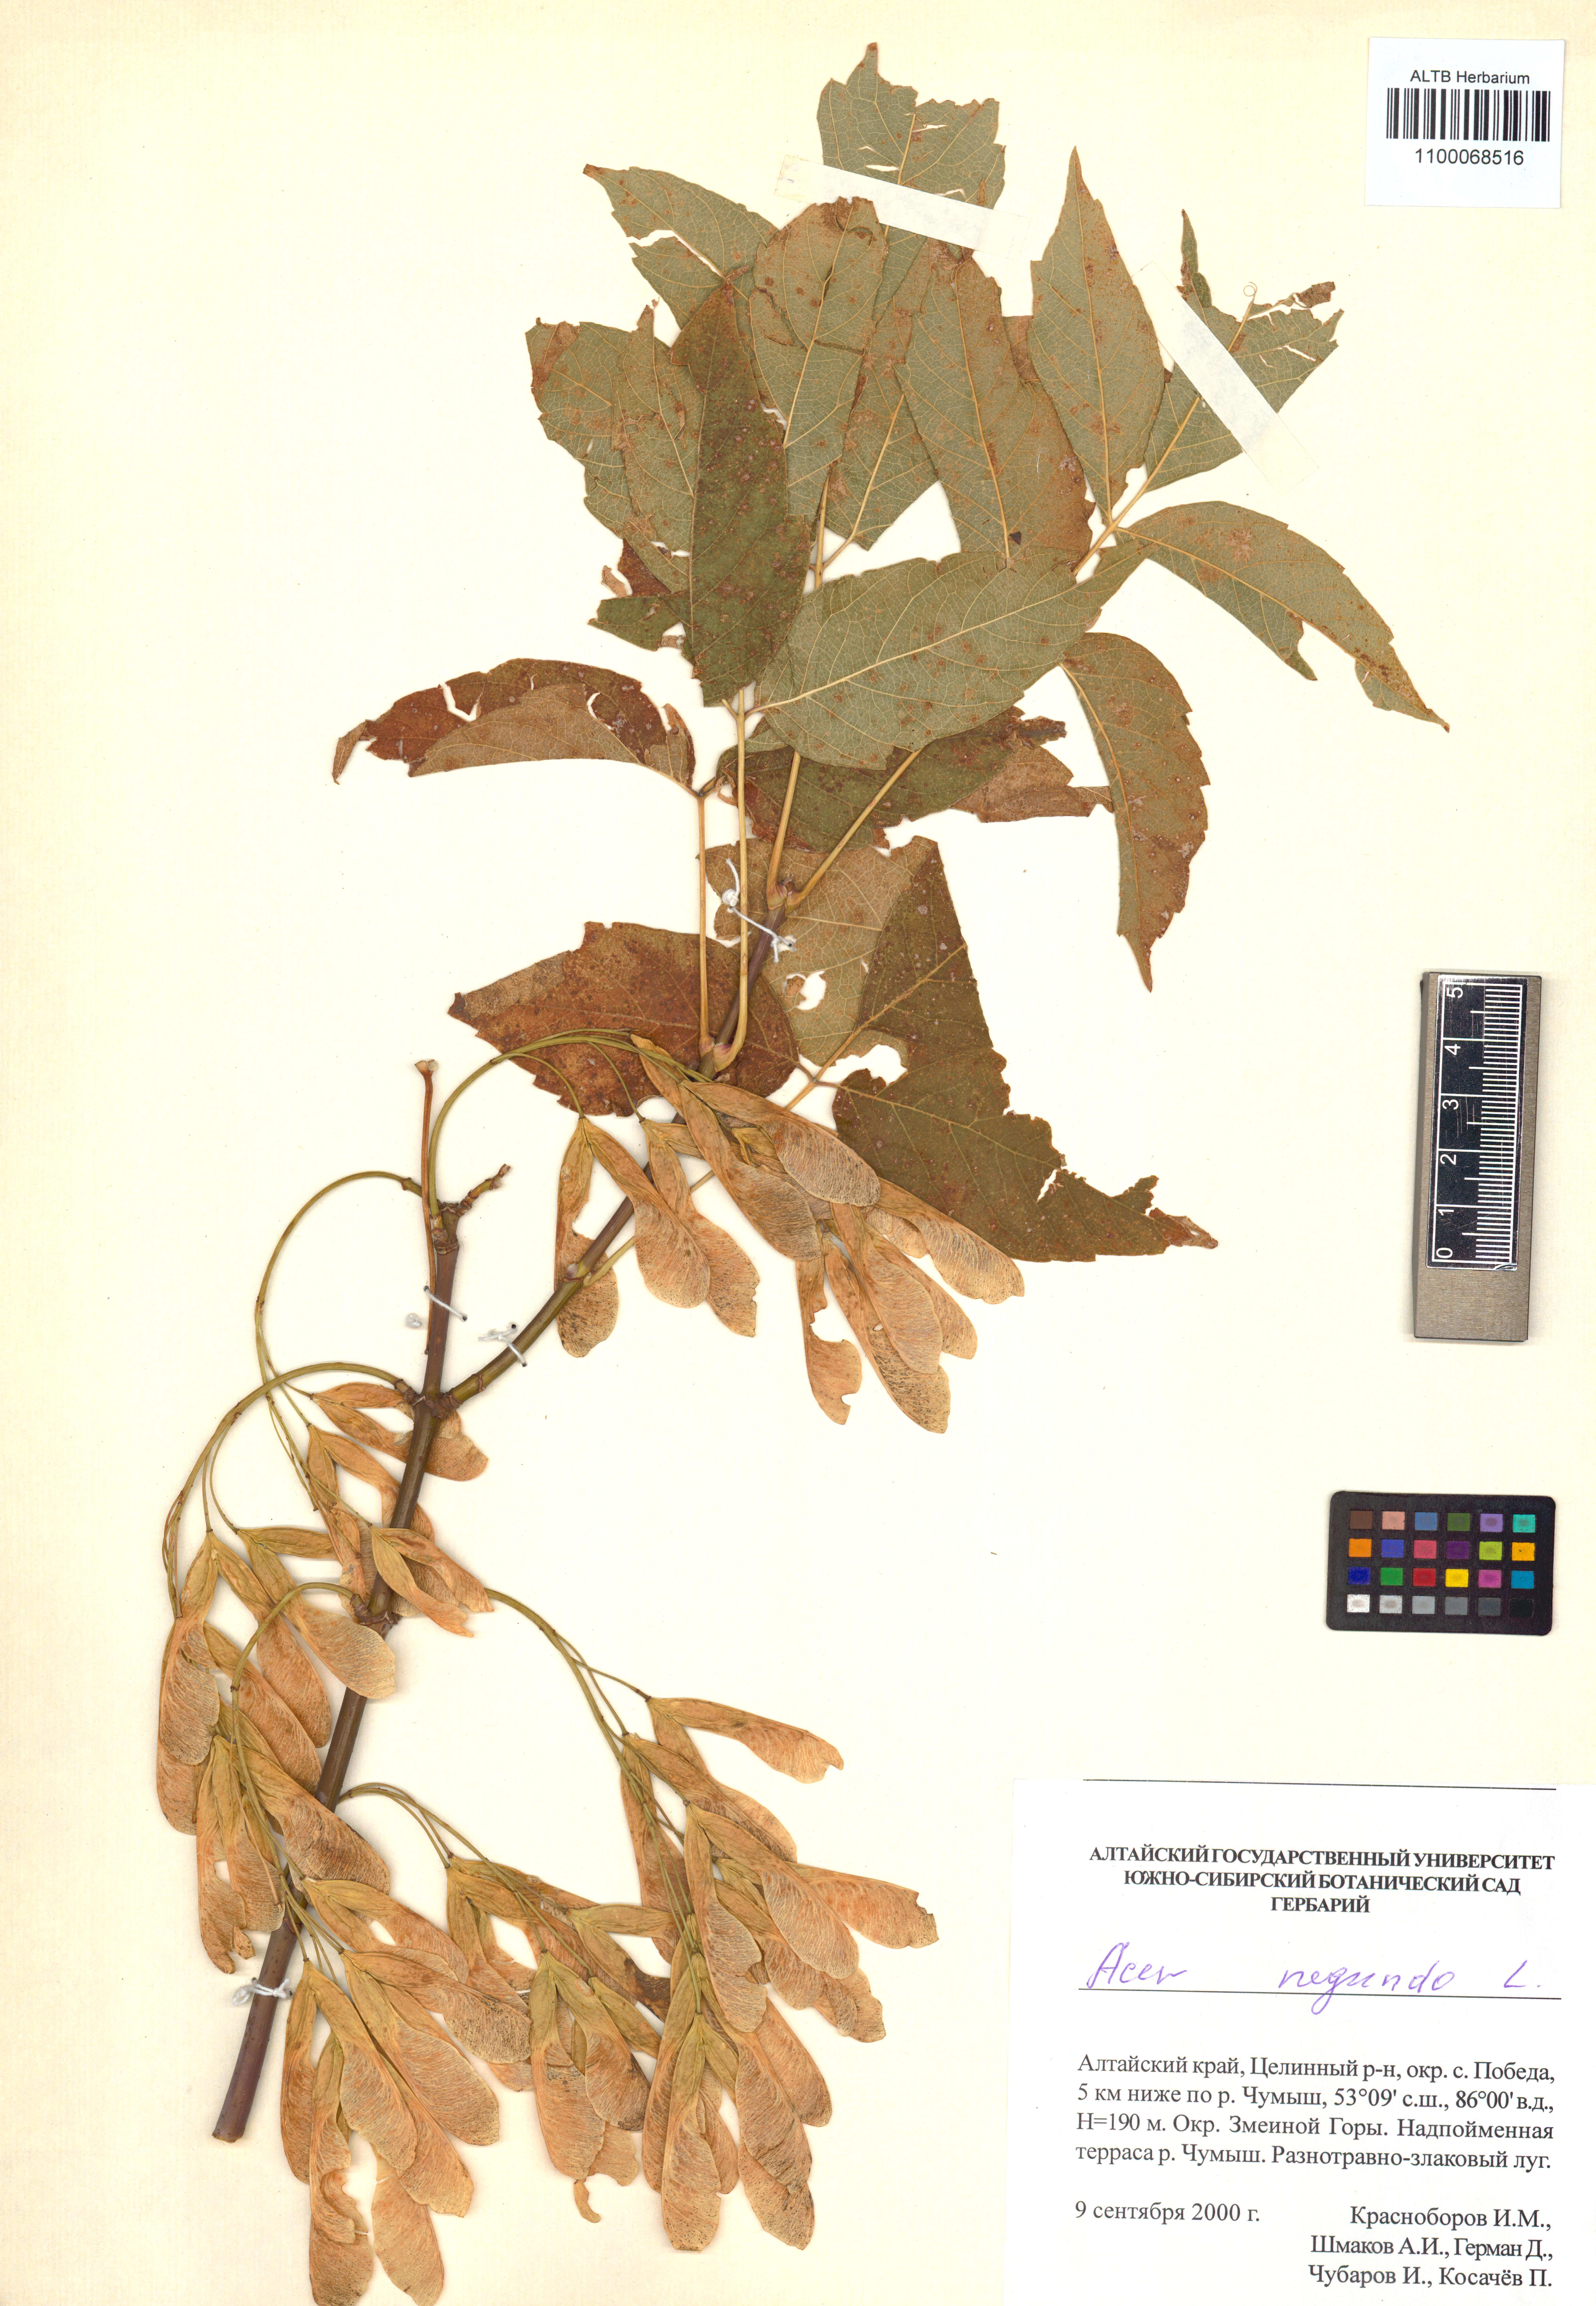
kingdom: Plantae
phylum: Tracheophyta
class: Magnoliopsida
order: Sapindales
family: Sapindaceae
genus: Acer
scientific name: Acer negundo
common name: Ashleaf maple
